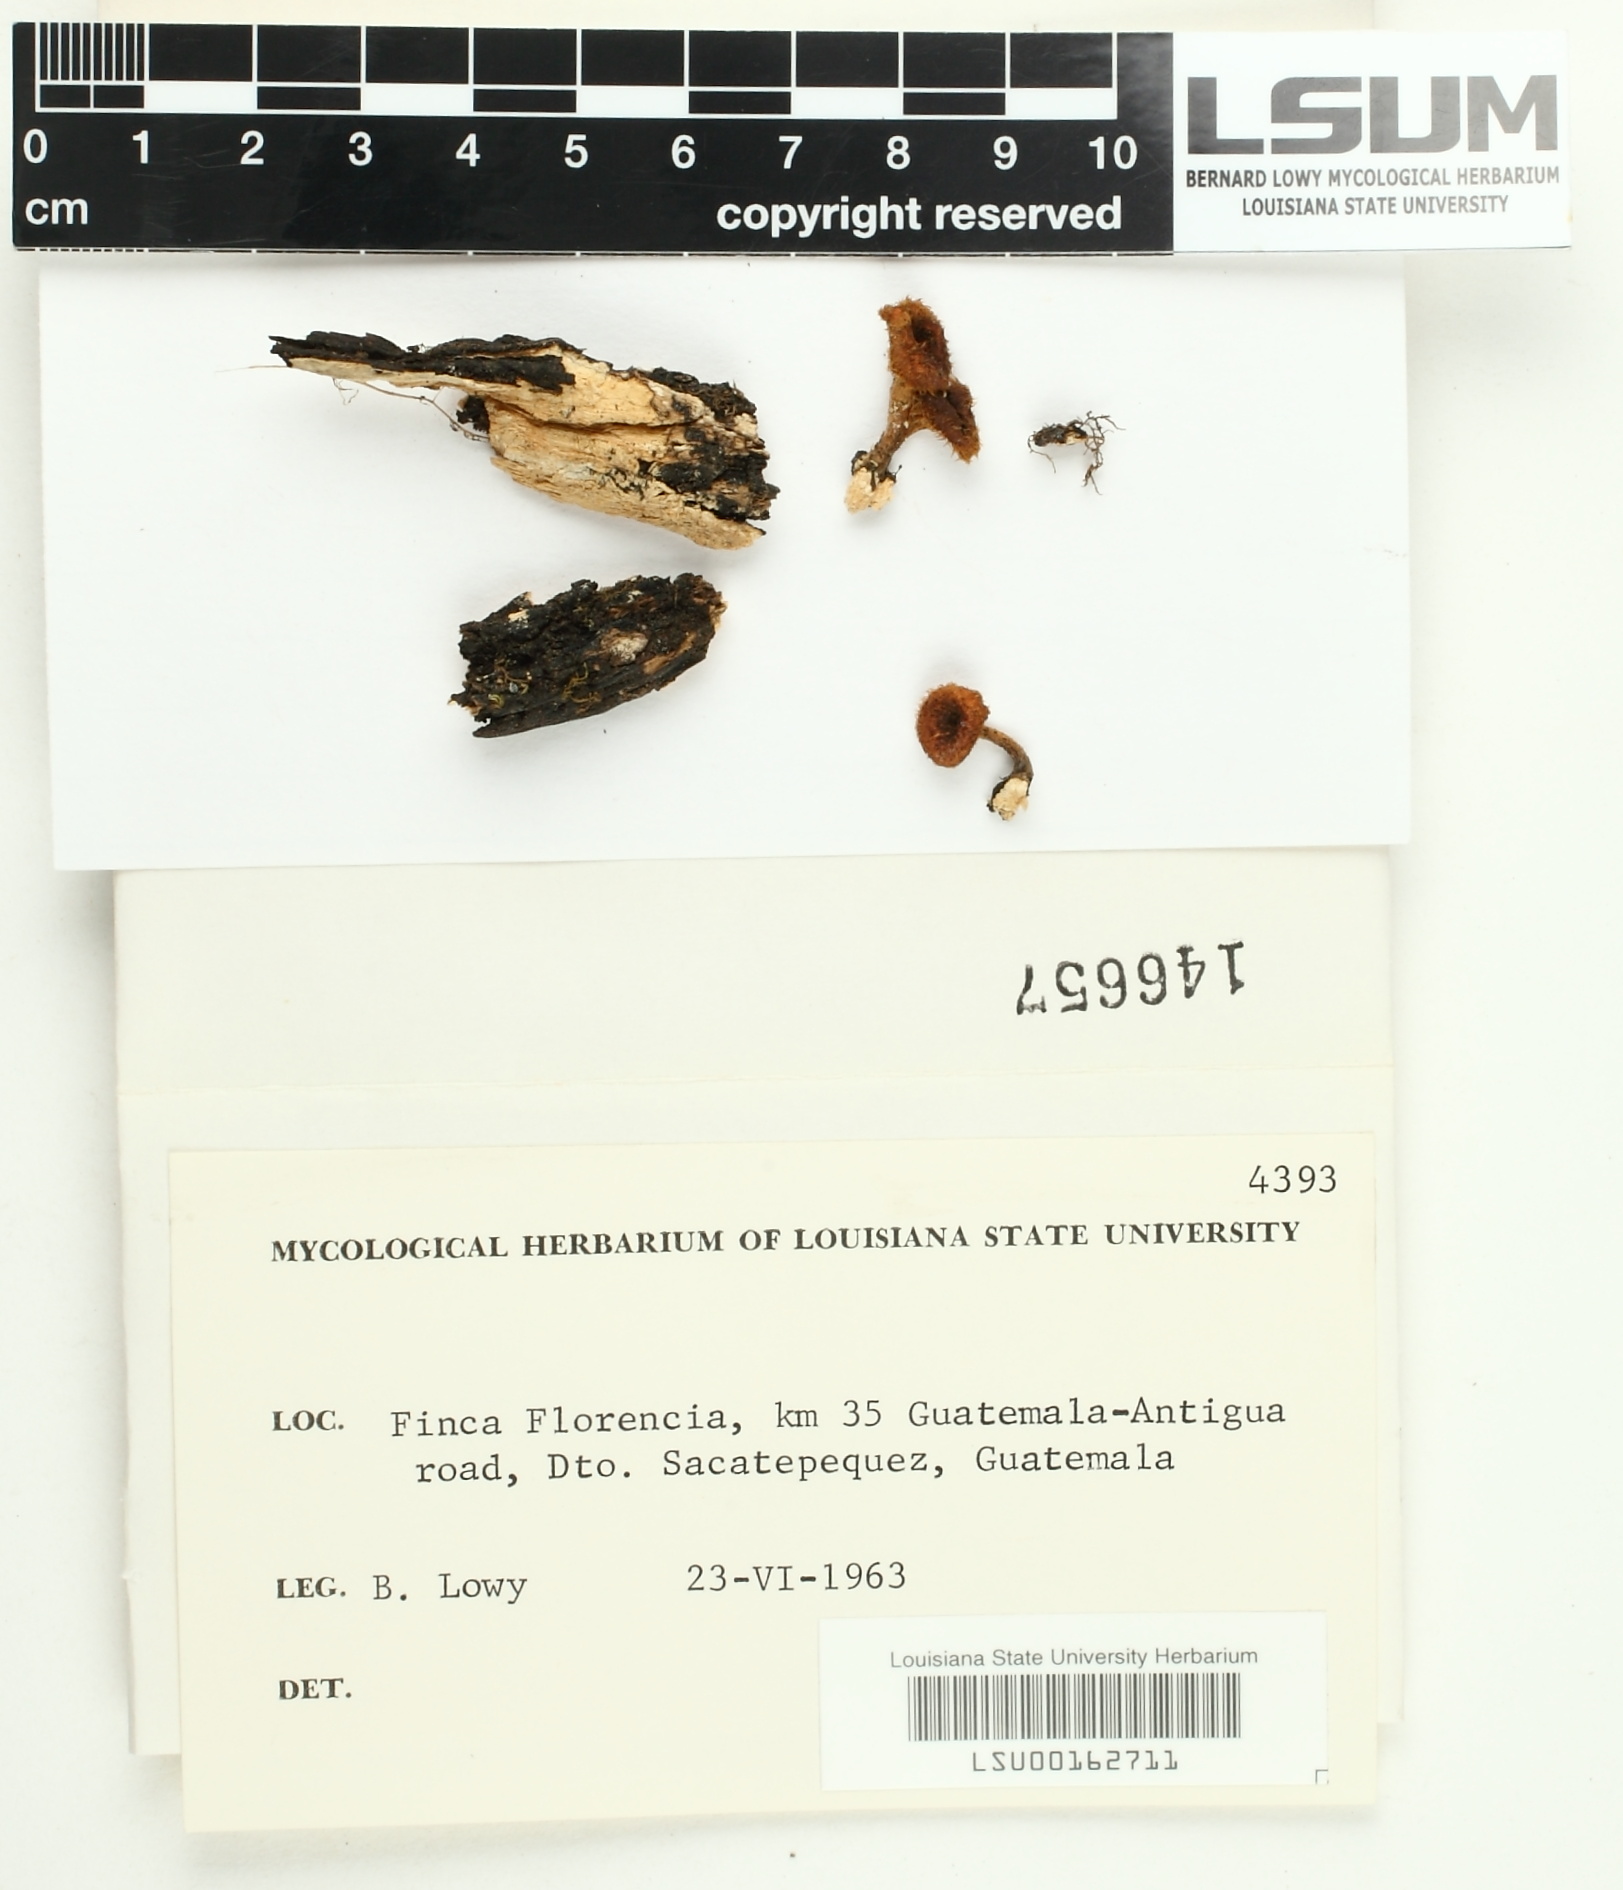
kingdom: Fungi
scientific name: Fungi
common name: Fungi
